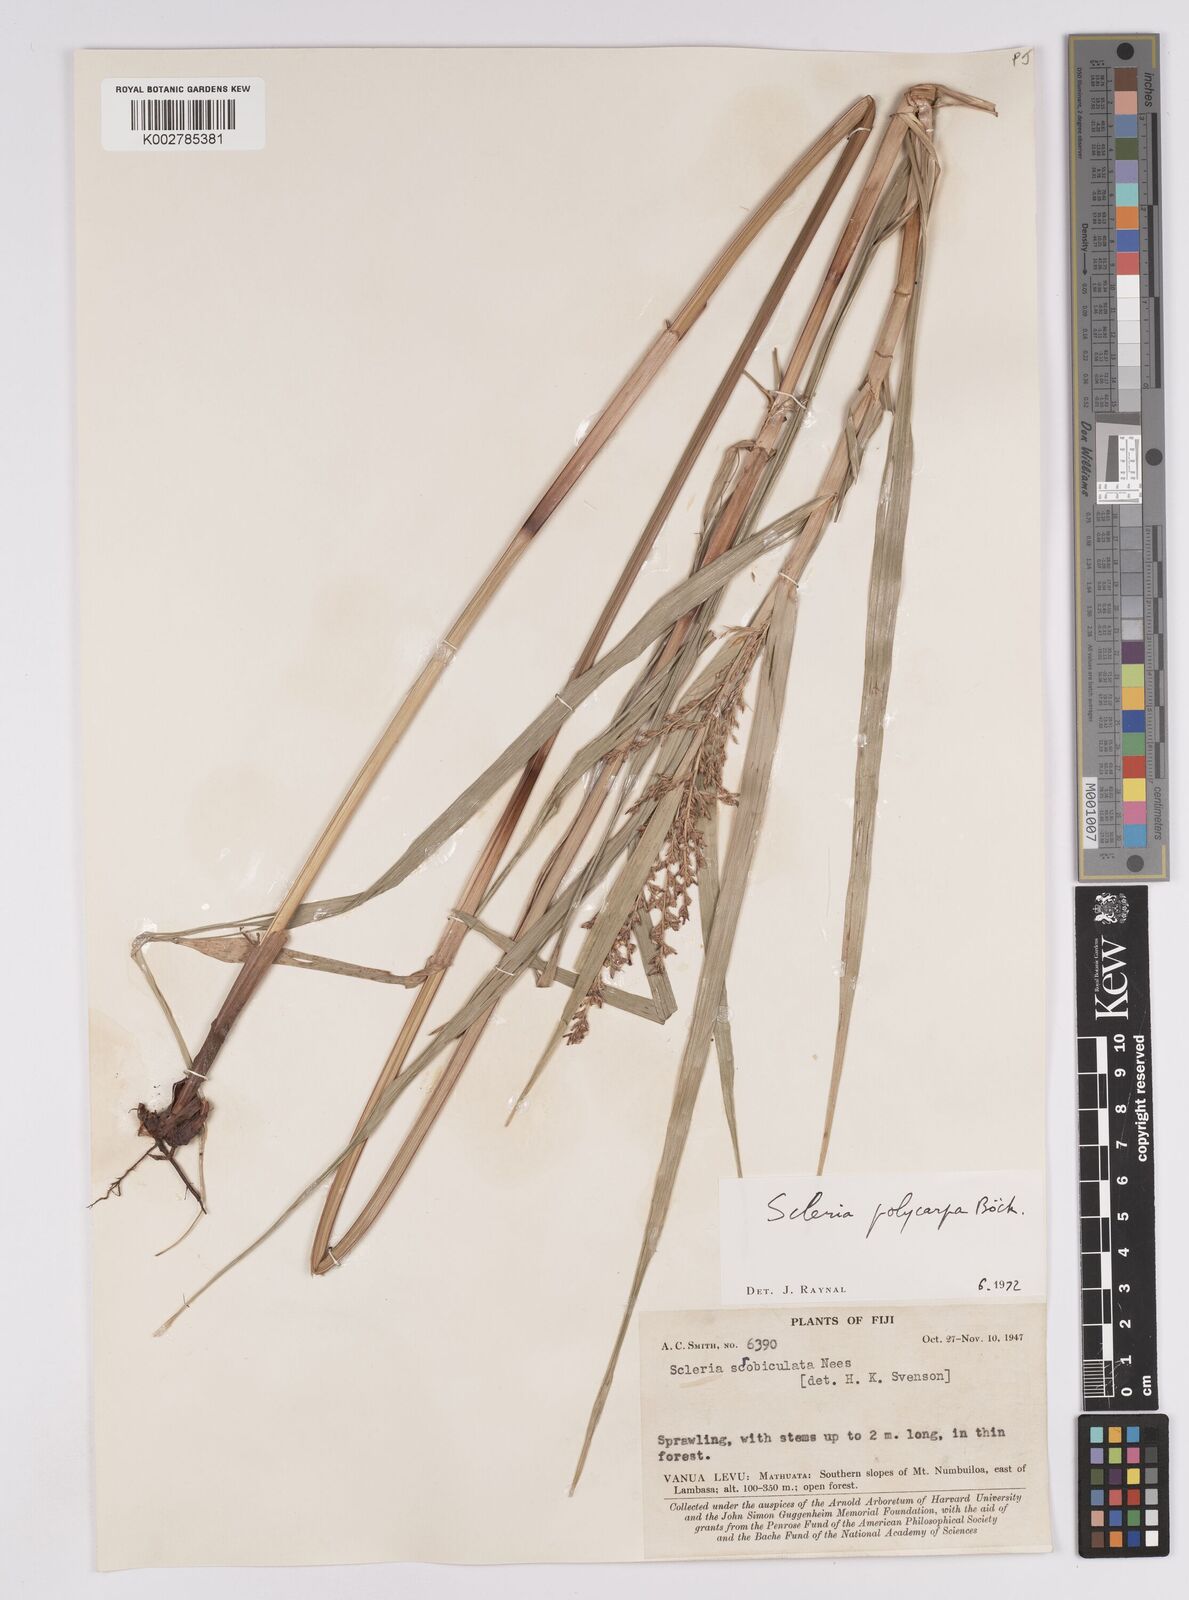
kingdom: Plantae
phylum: Tracheophyta
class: Liliopsida
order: Poales
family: Cyperaceae
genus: Scleria
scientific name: Scleria polycarpa
